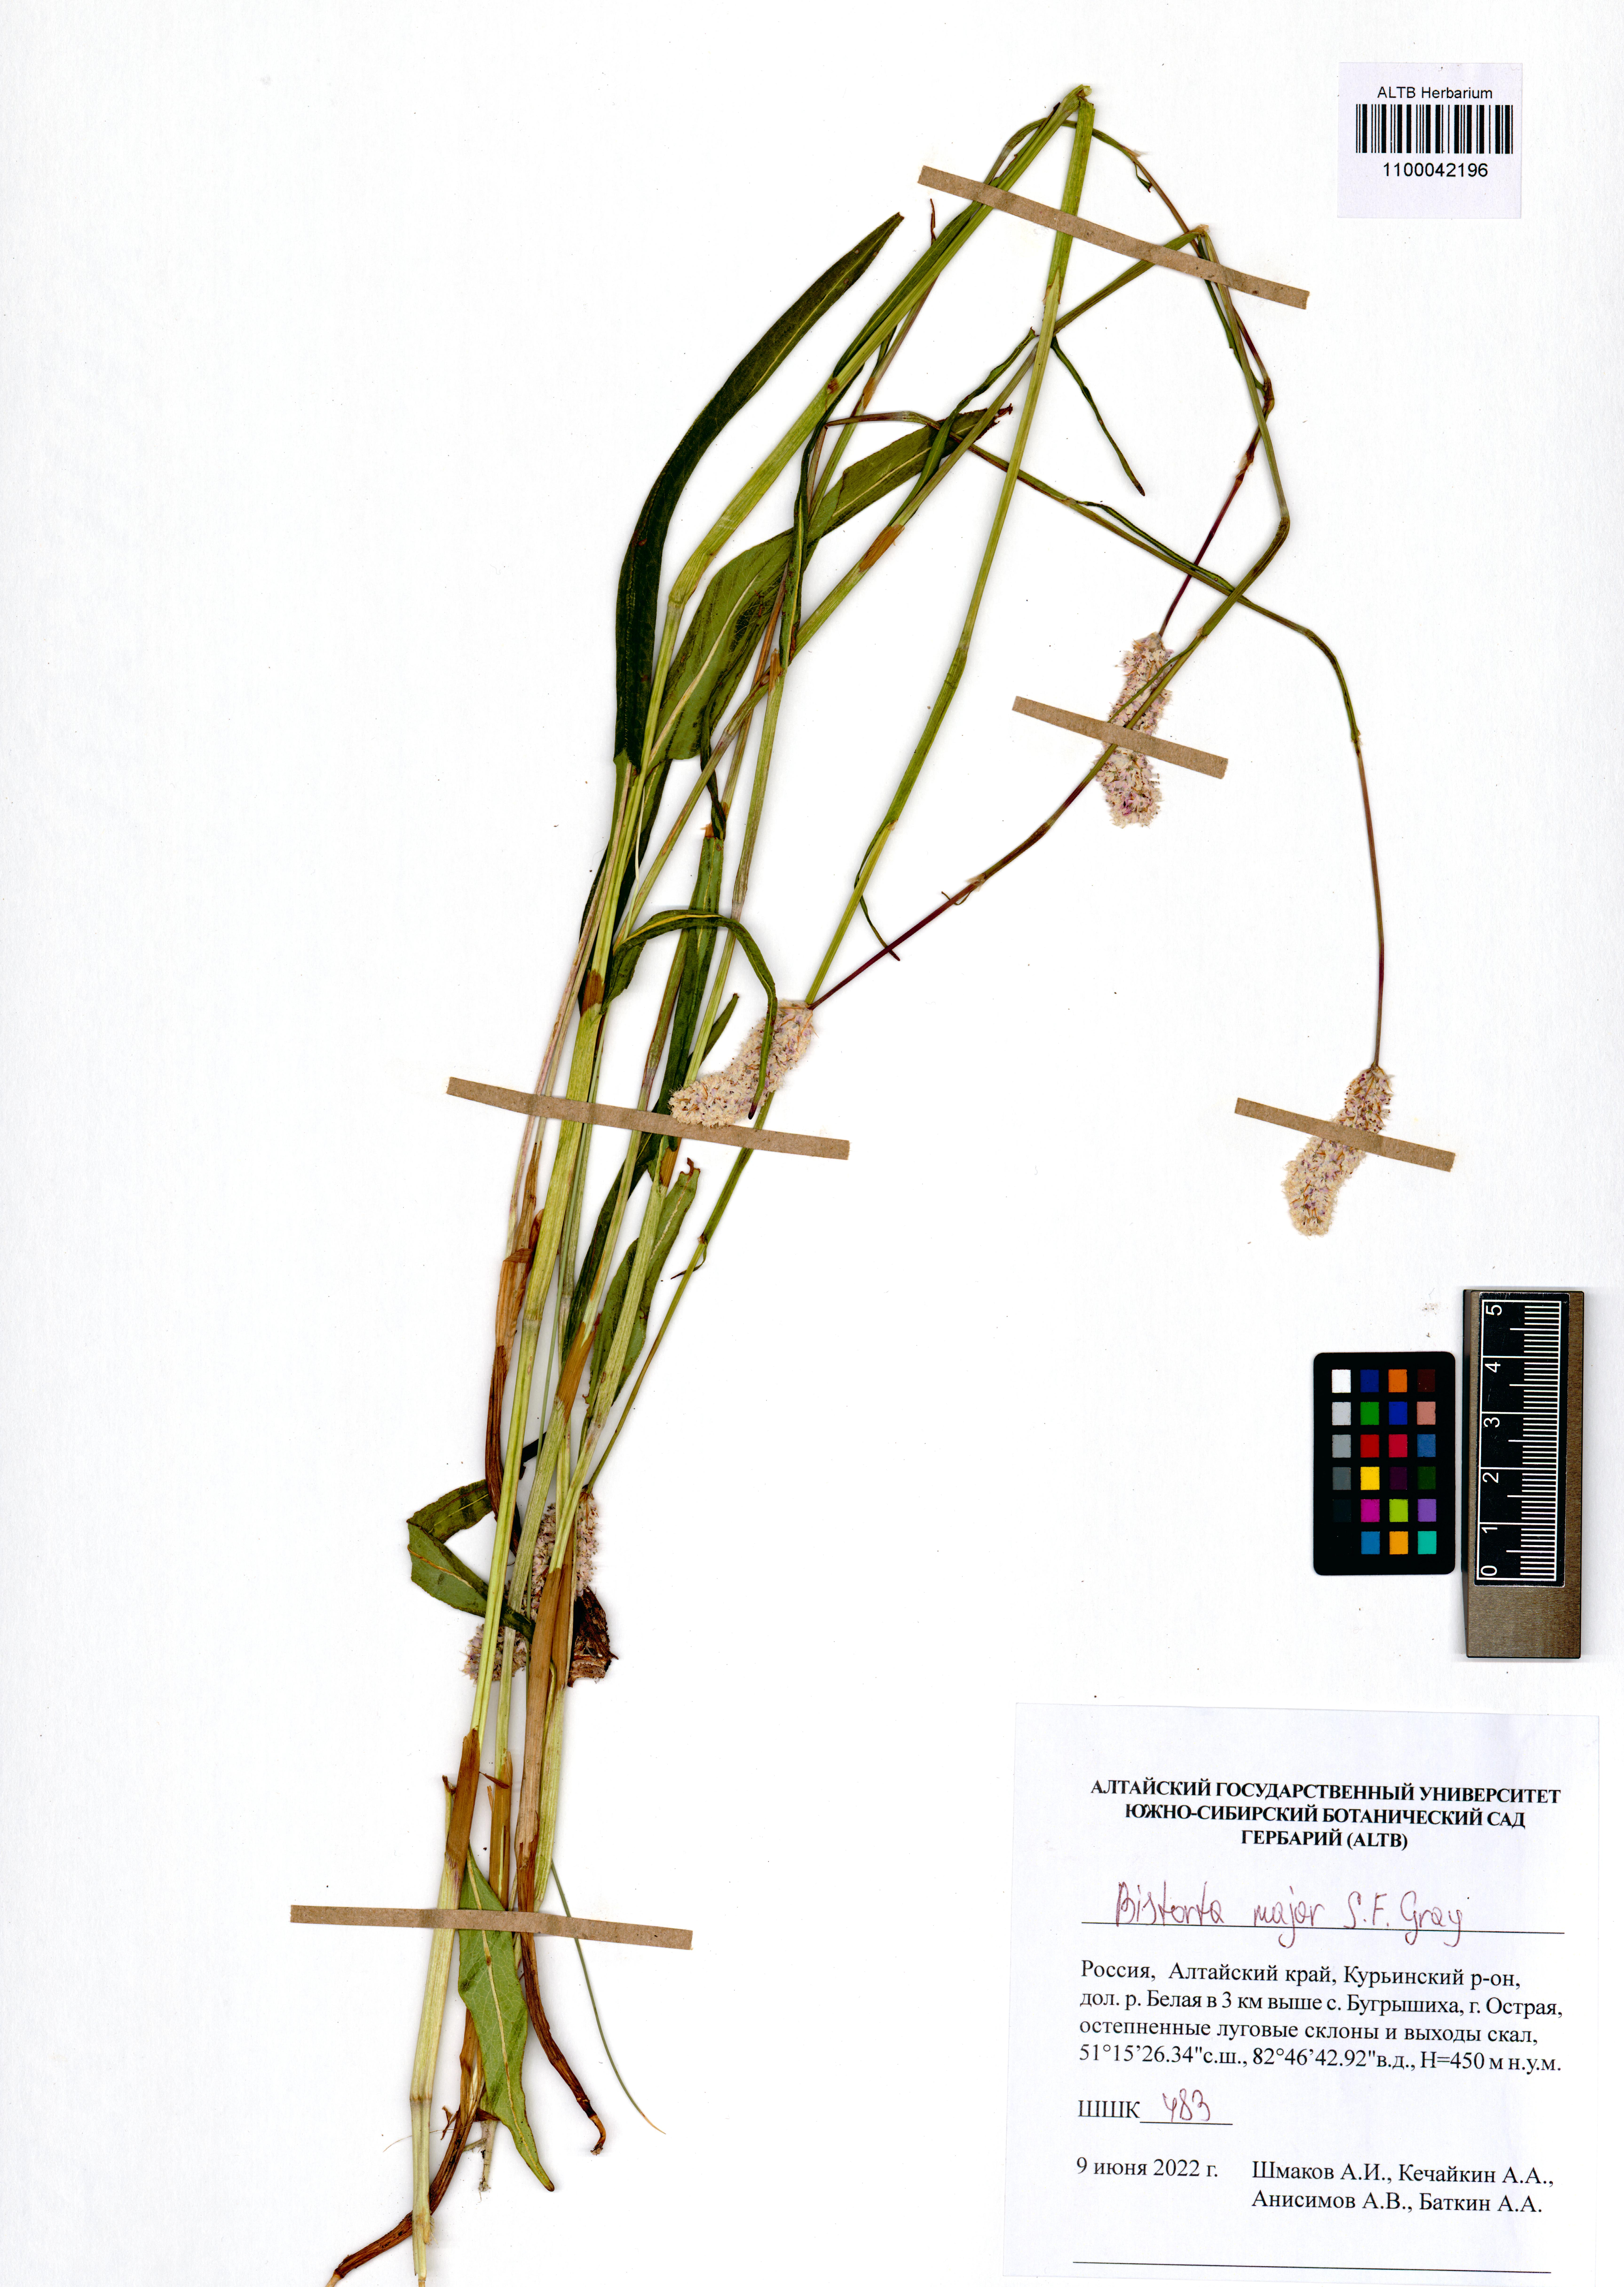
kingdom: Plantae
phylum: Tracheophyta
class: Magnoliopsida
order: Caryophyllales
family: Polygonaceae
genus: Bistorta
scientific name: Bistorta officinalis
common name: Common bistort
